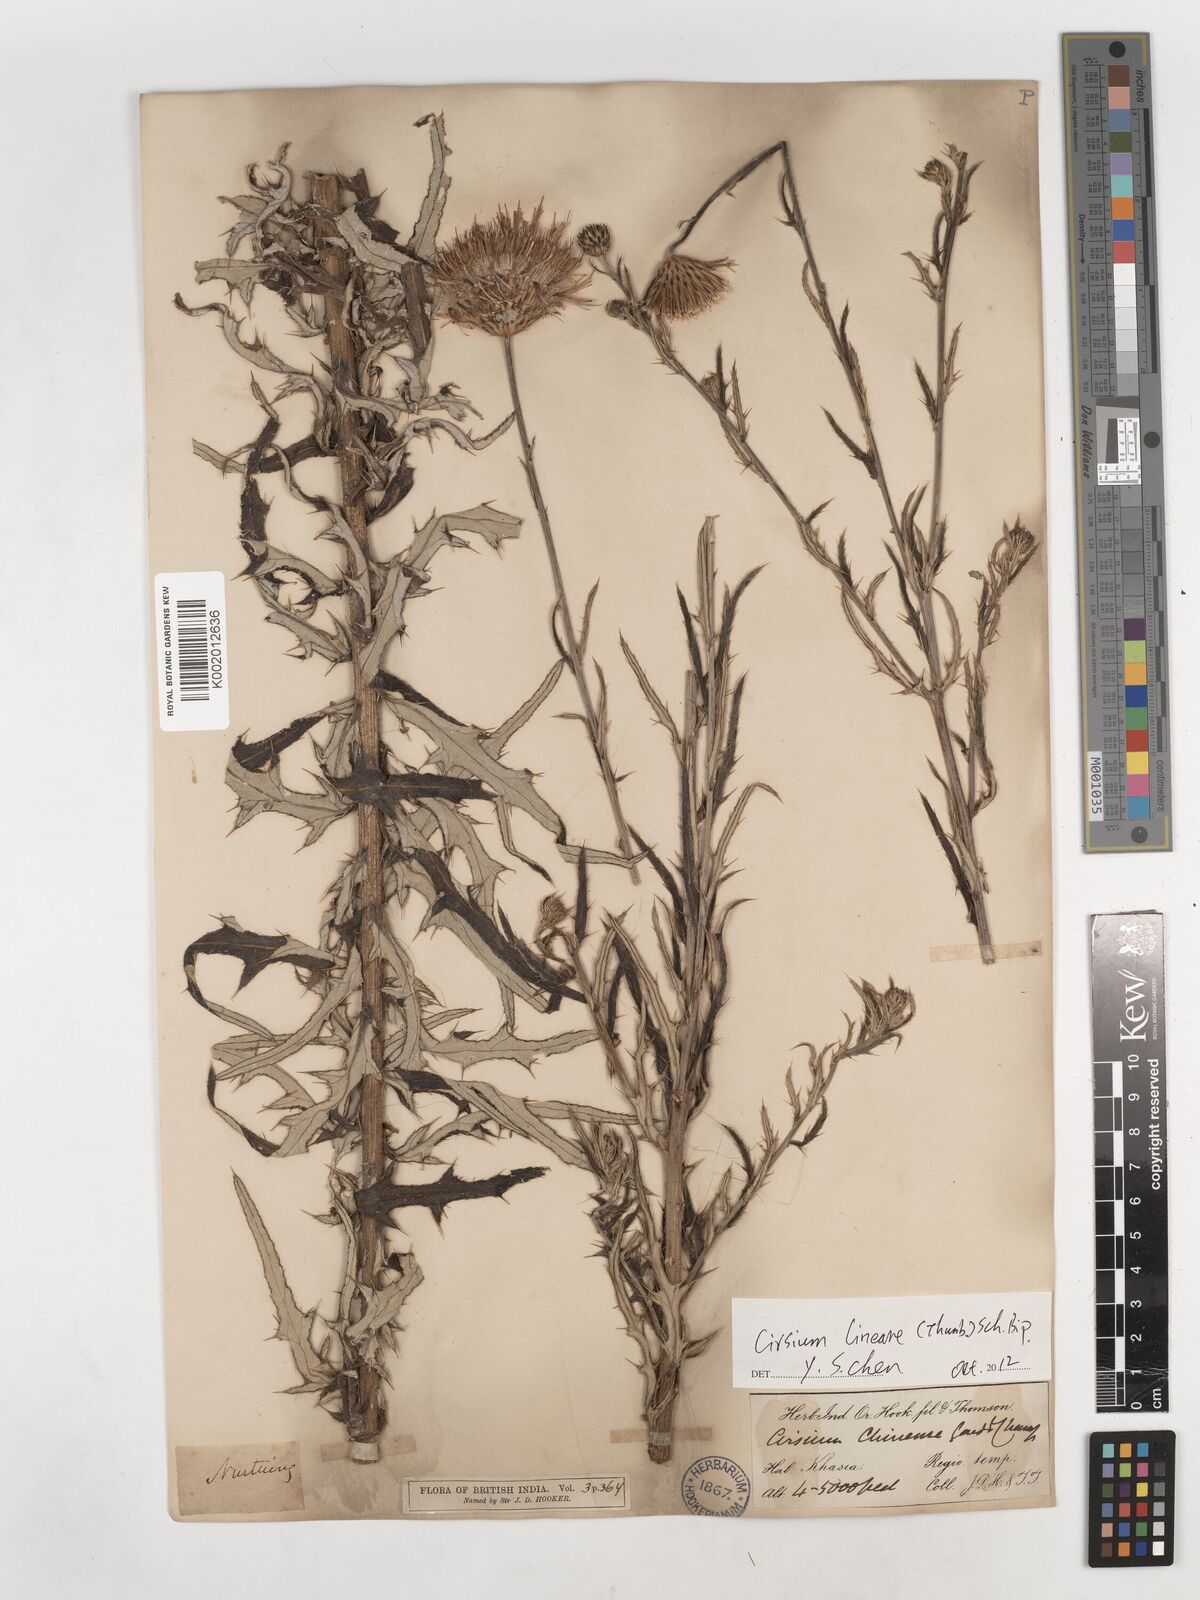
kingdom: Plantae
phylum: Tracheophyta
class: Magnoliopsida
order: Asterales
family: Asteraceae
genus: Cirsium
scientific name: Cirsium chinense
